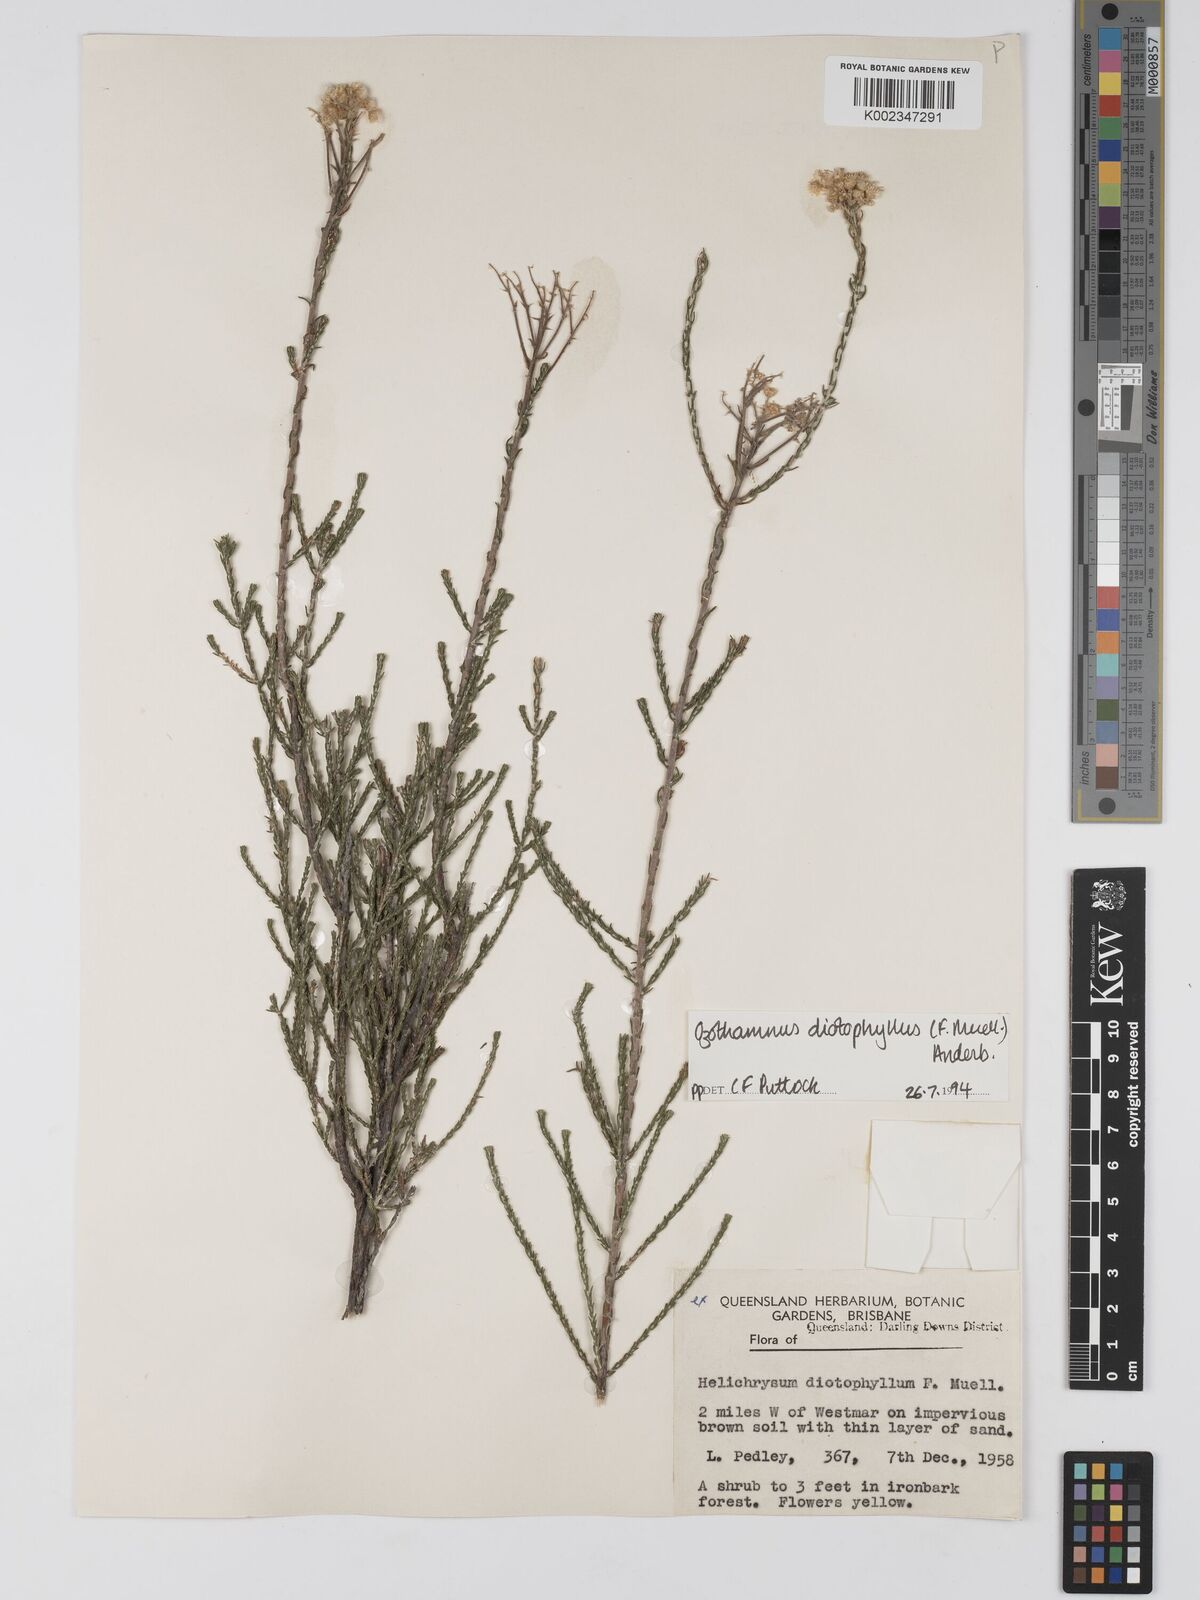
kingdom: Plantae
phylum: Tracheophyta
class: Magnoliopsida
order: Asterales
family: Asteraceae
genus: Ozothamnus
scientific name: Ozothamnus diotophyllus
